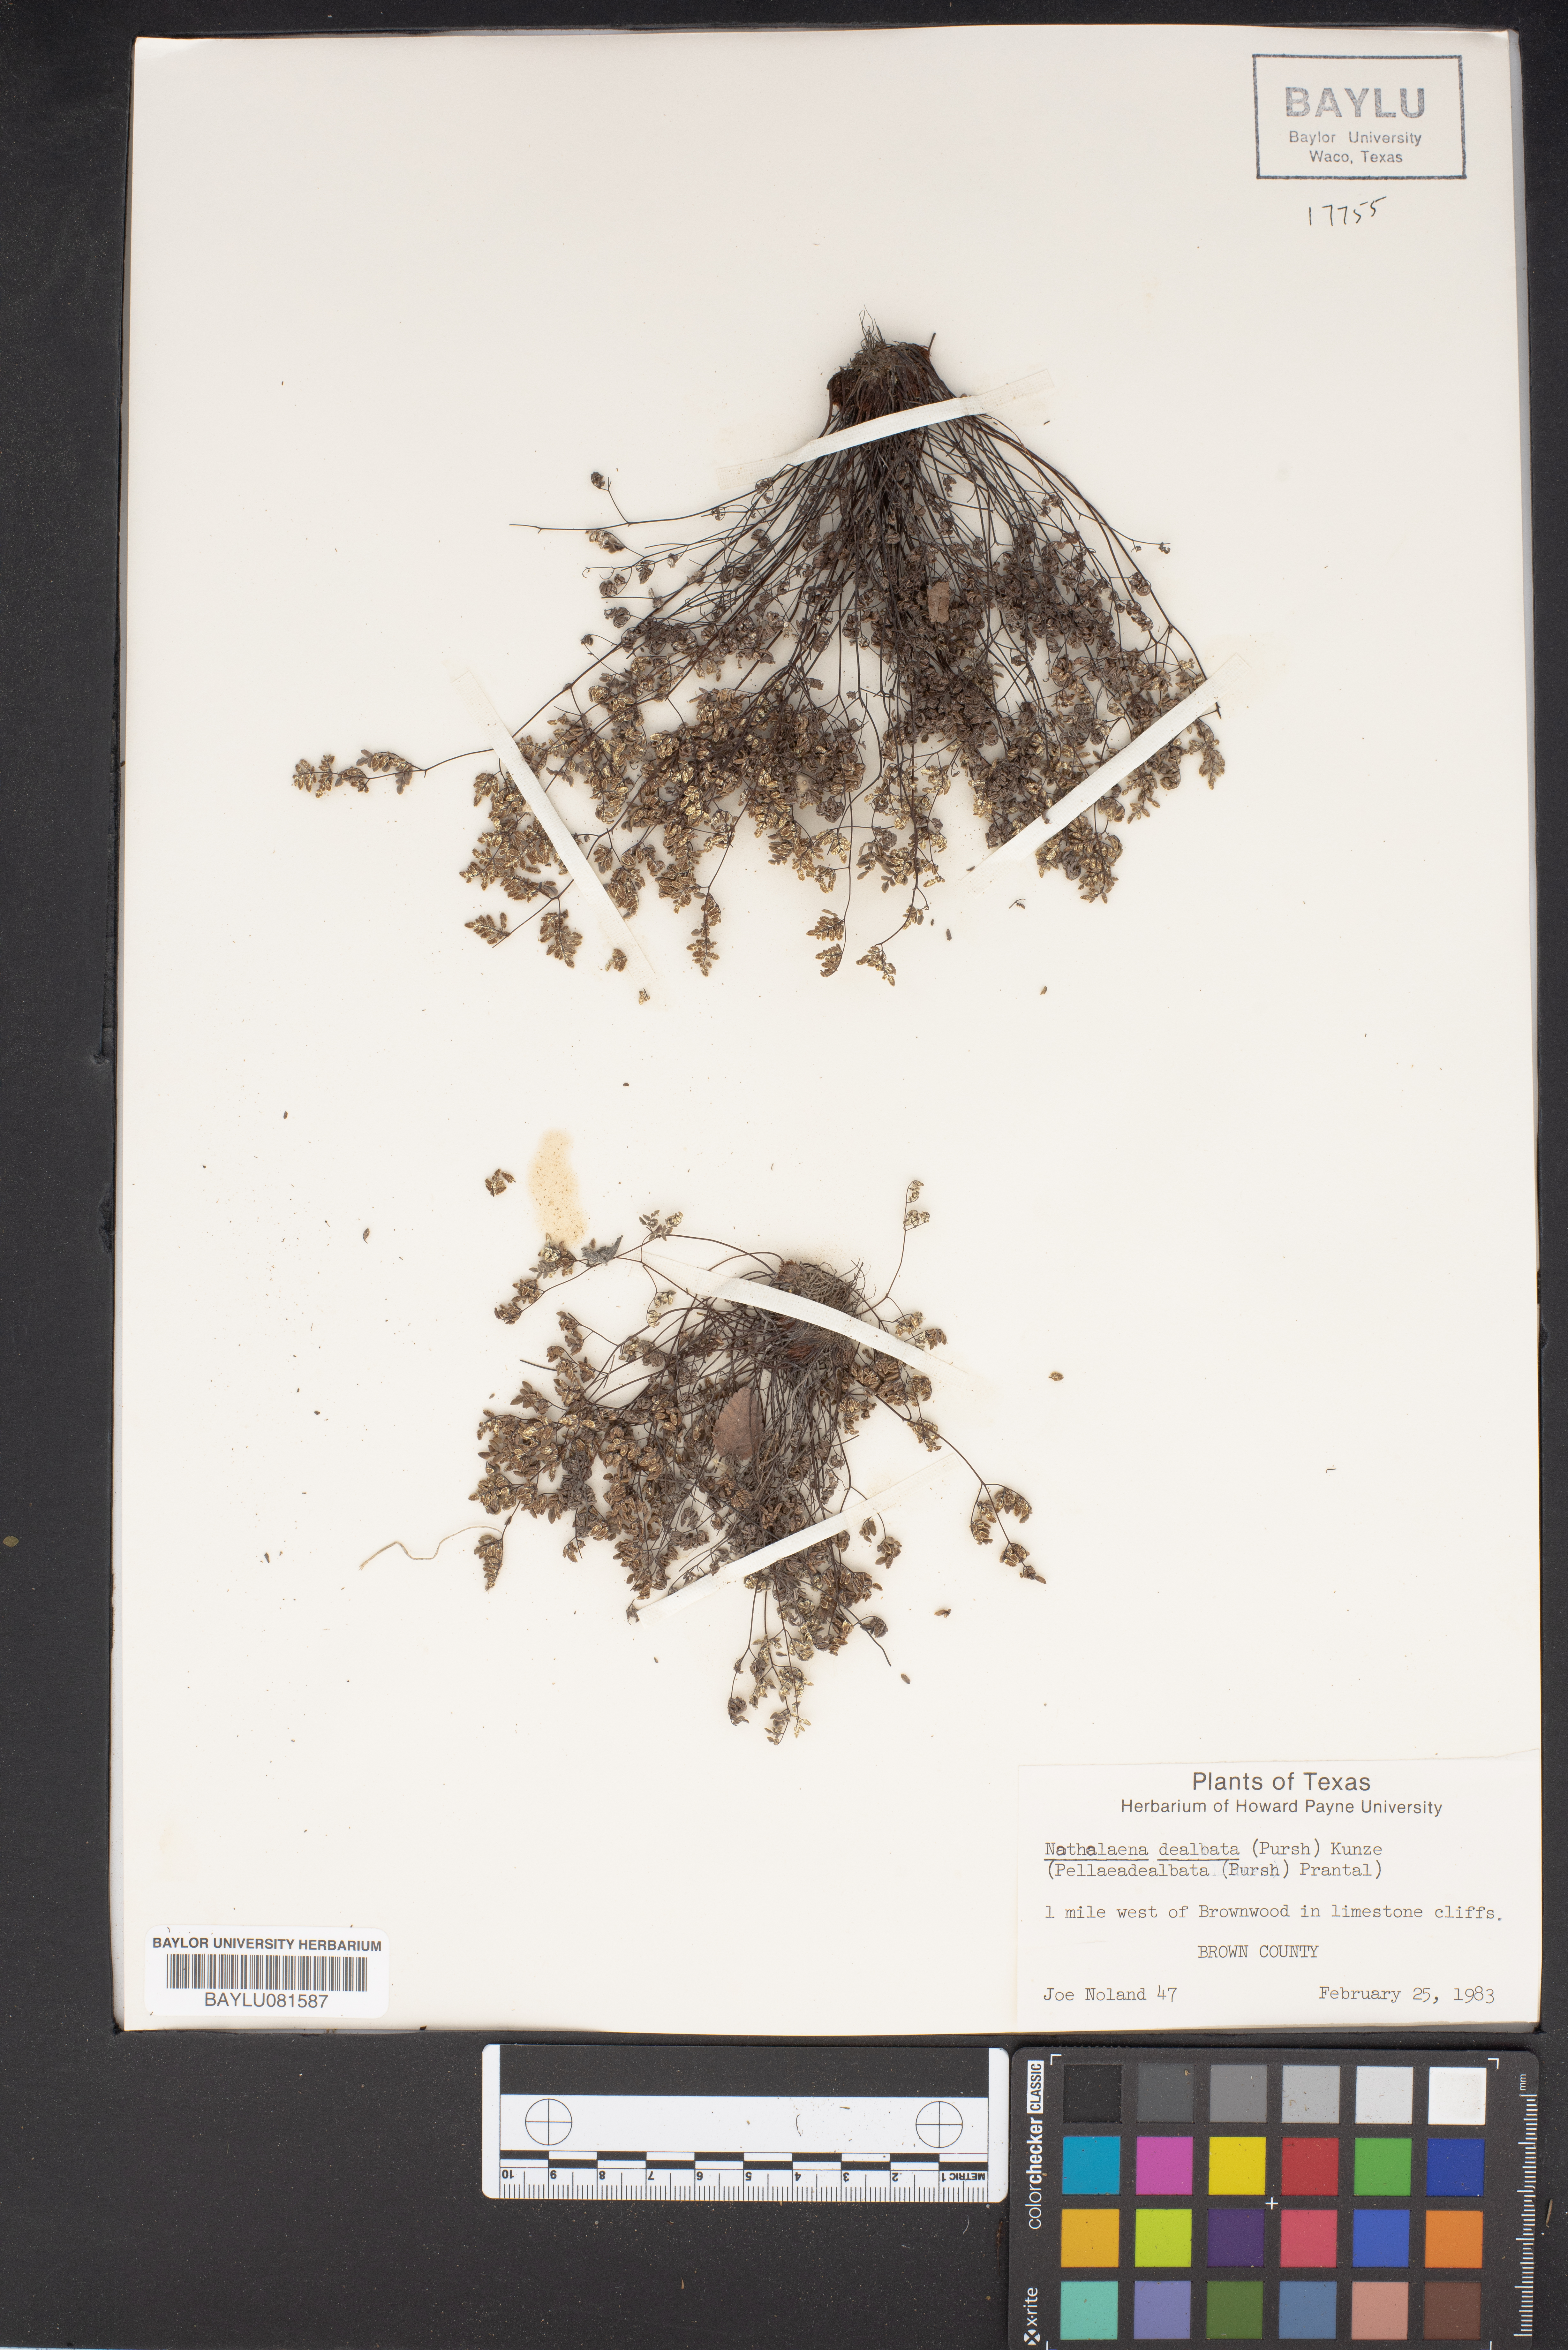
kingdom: Plantae
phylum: Tracheophyta
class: Polypodiopsida
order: Polypodiales
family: Pteridaceae
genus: Argyrochosma
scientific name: Argyrochosma dealbata
